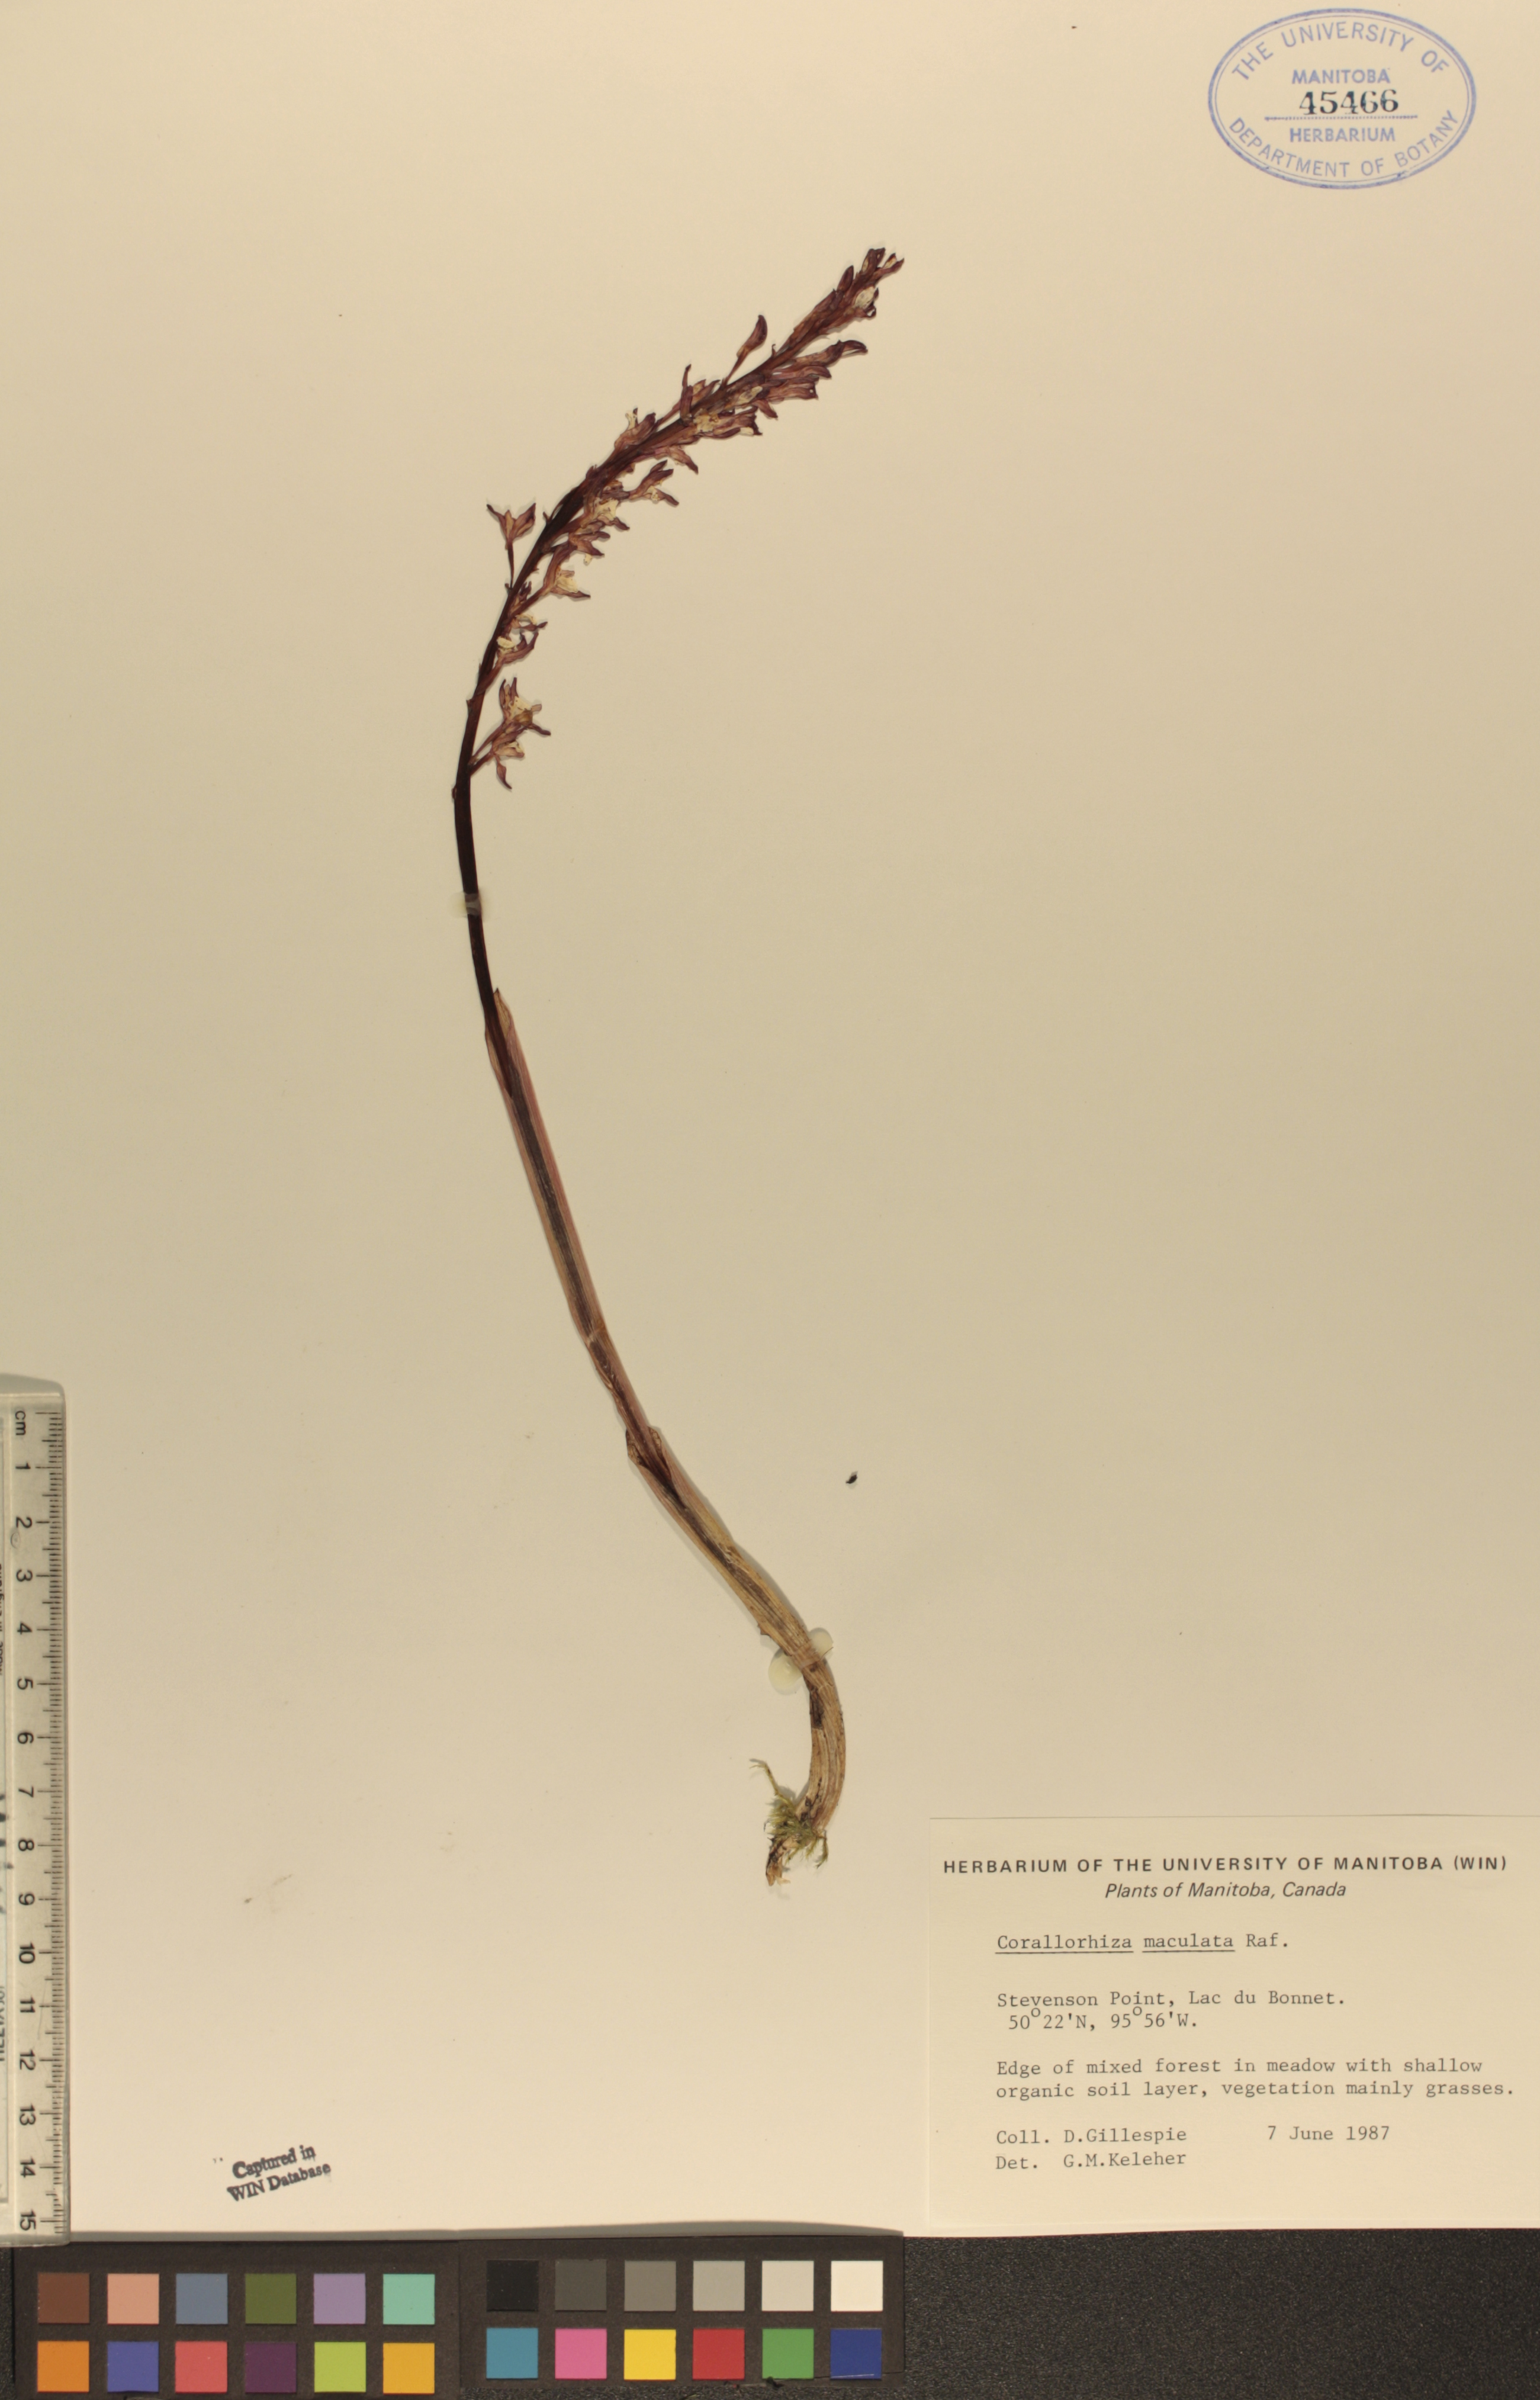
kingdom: Plantae
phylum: Tracheophyta
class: Liliopsida
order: Asparagales
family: Orchidaceae
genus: Corallorhiza
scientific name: Corallorhiza maculata
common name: Spotted coralroot
